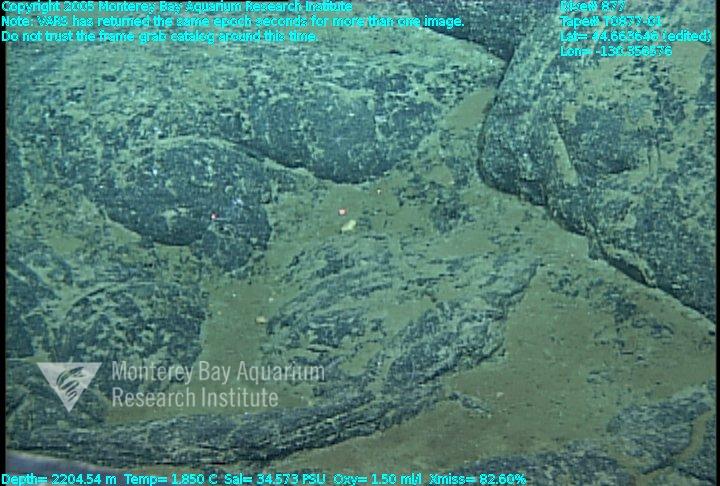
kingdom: Animalia
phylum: Porifera
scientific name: Porifera
